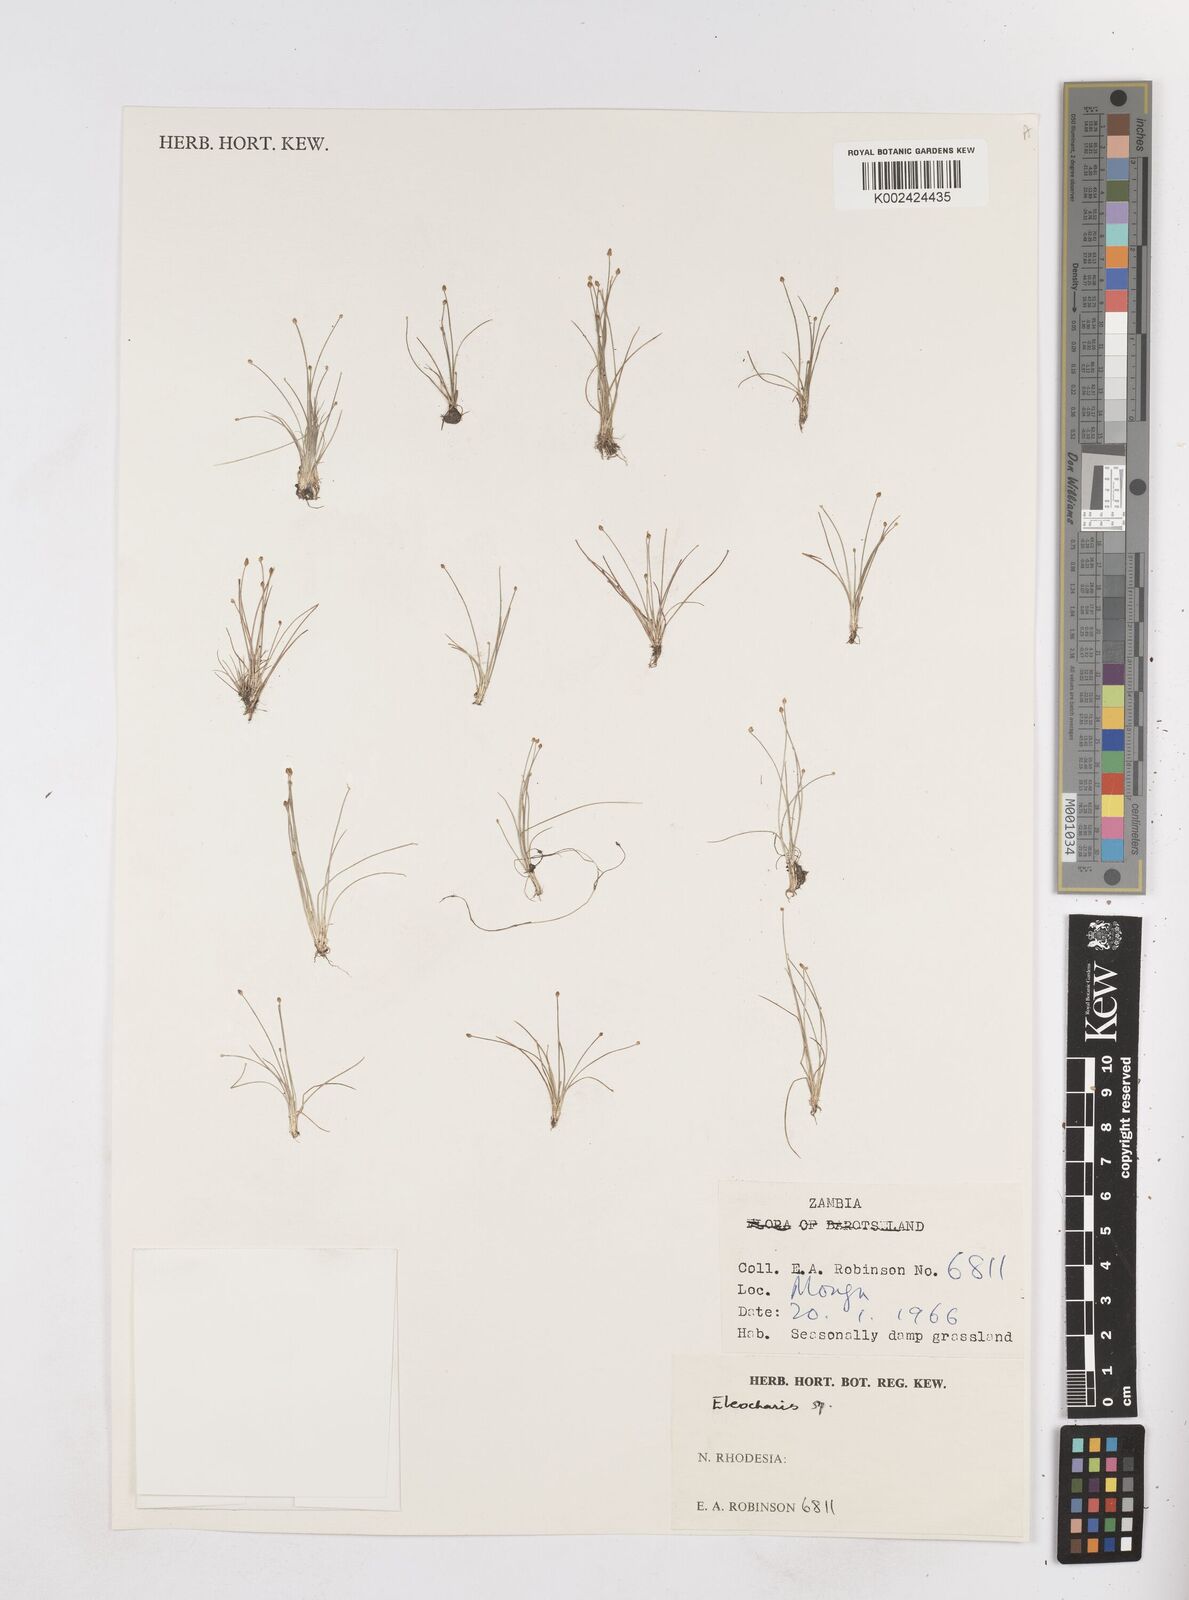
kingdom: Plantae
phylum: Tracheophyta
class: Liliopsida
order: Poales
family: Cyperaceae
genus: Eleocharis
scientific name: Eleocharis
